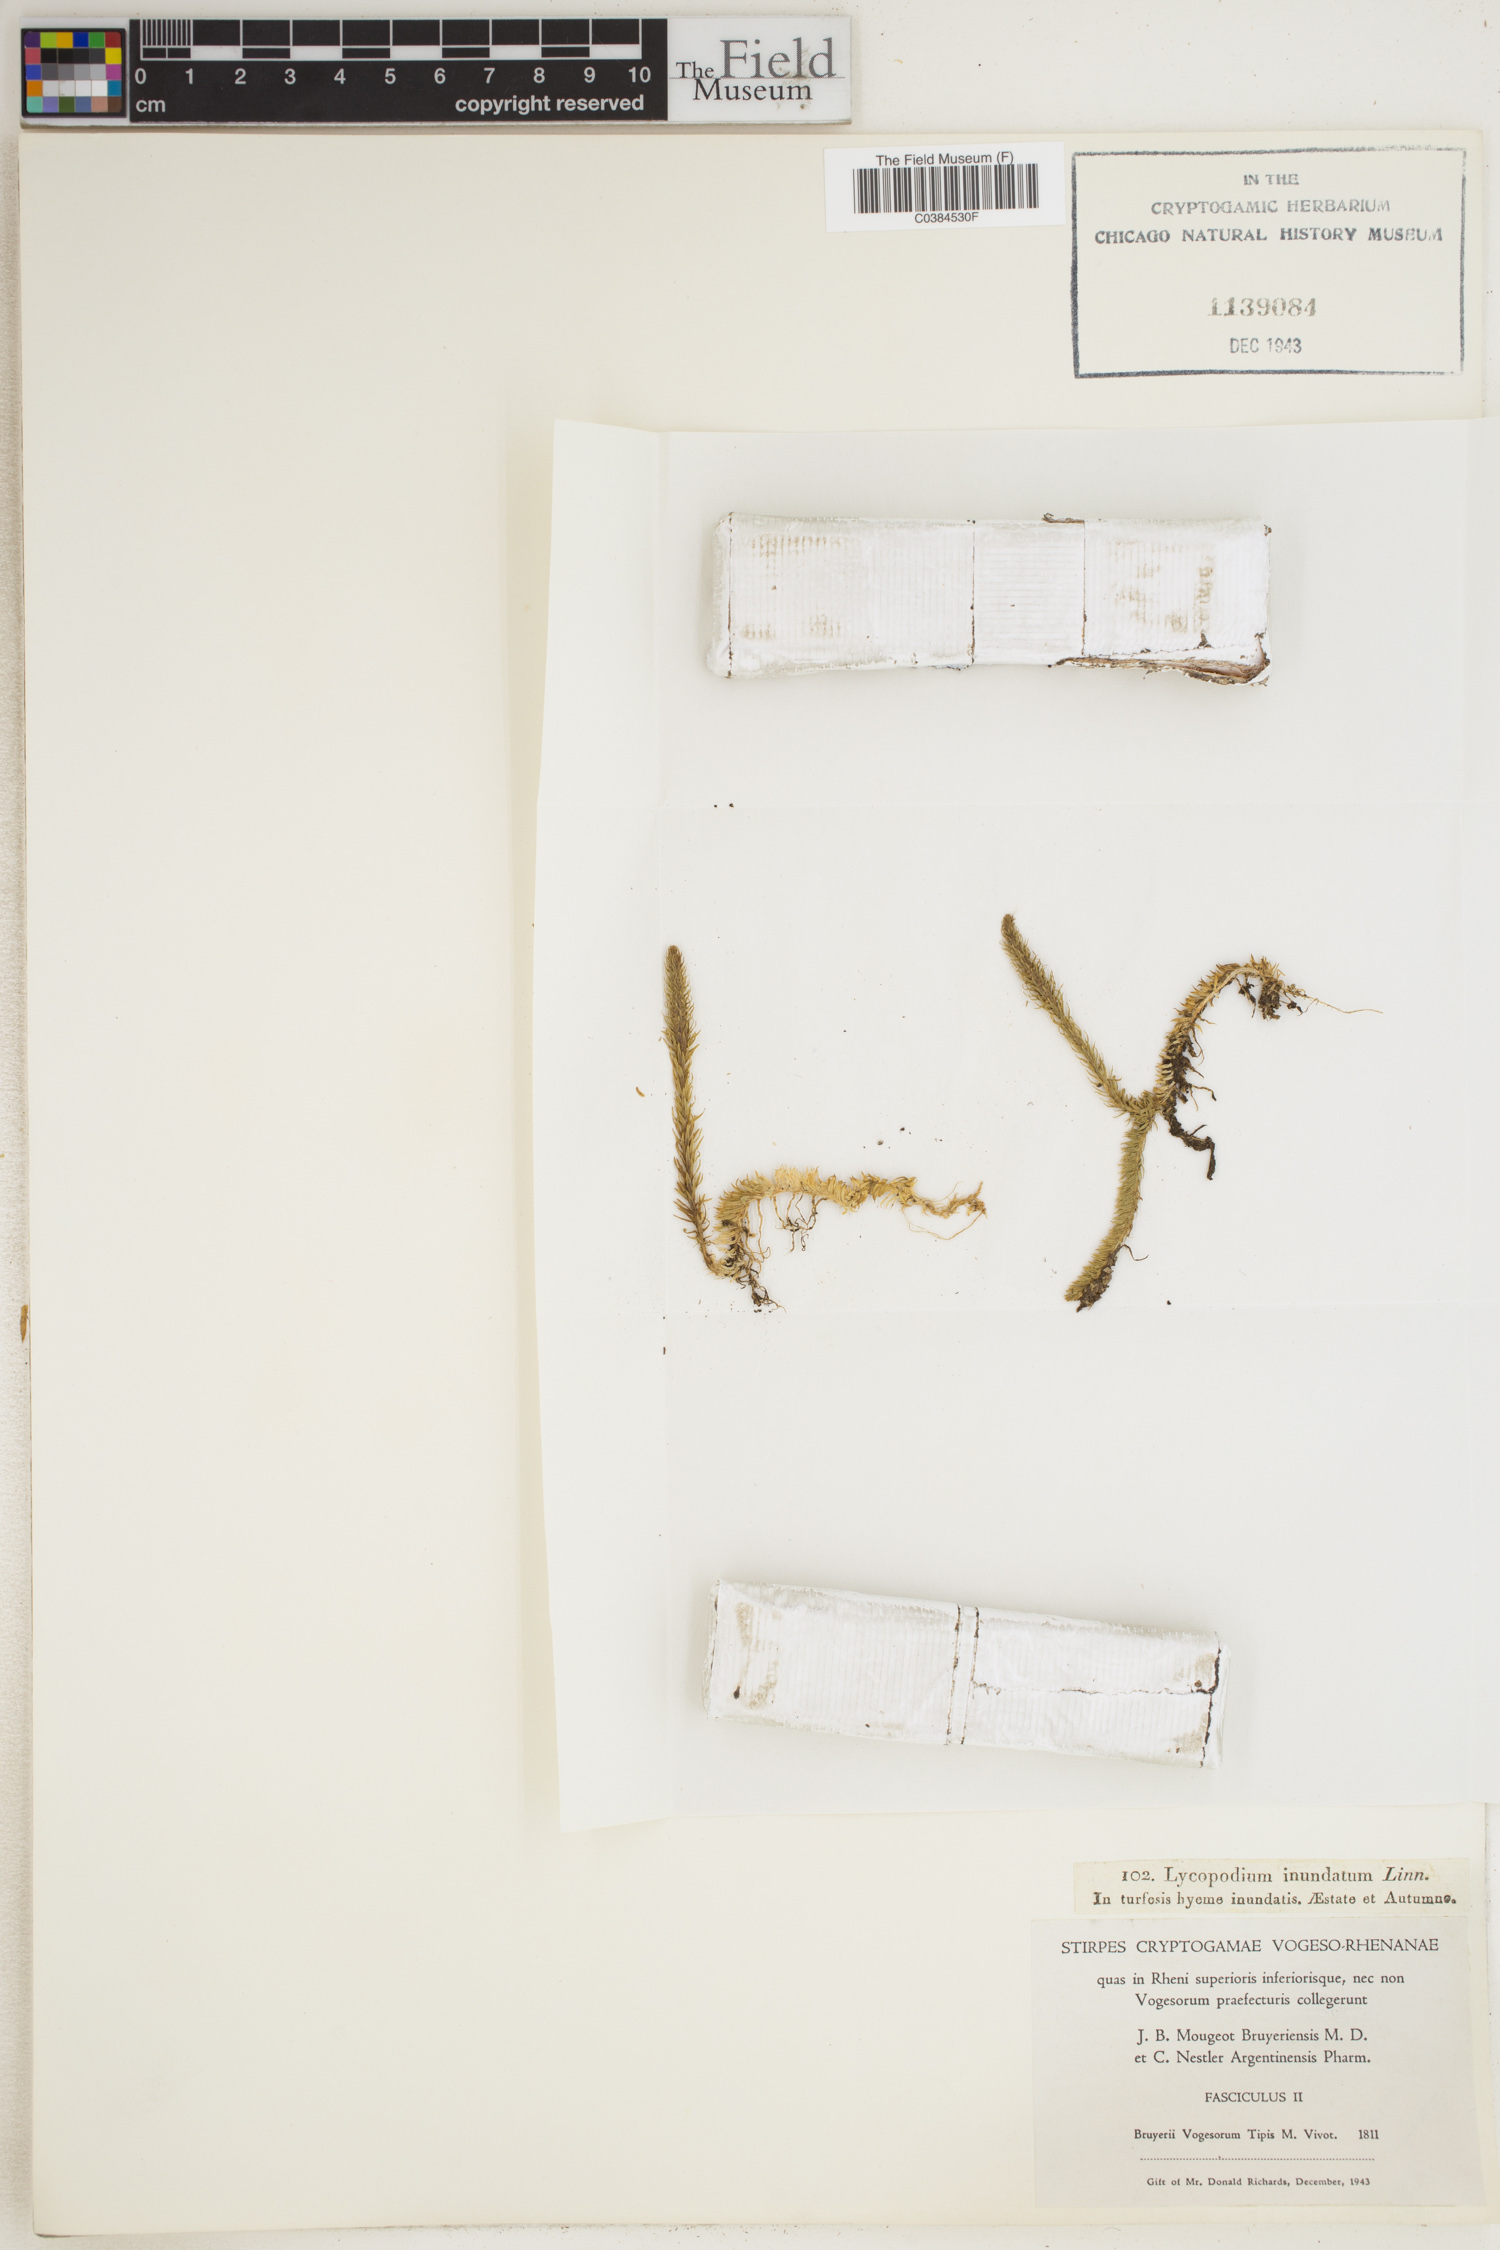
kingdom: Plantae
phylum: Tracheophyta
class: Lycopodiopsida
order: Lycopodiales
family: Lycopodiaceae
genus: Lycopodiella
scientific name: Lycopodiella inundata
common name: Marsh clubmoss
